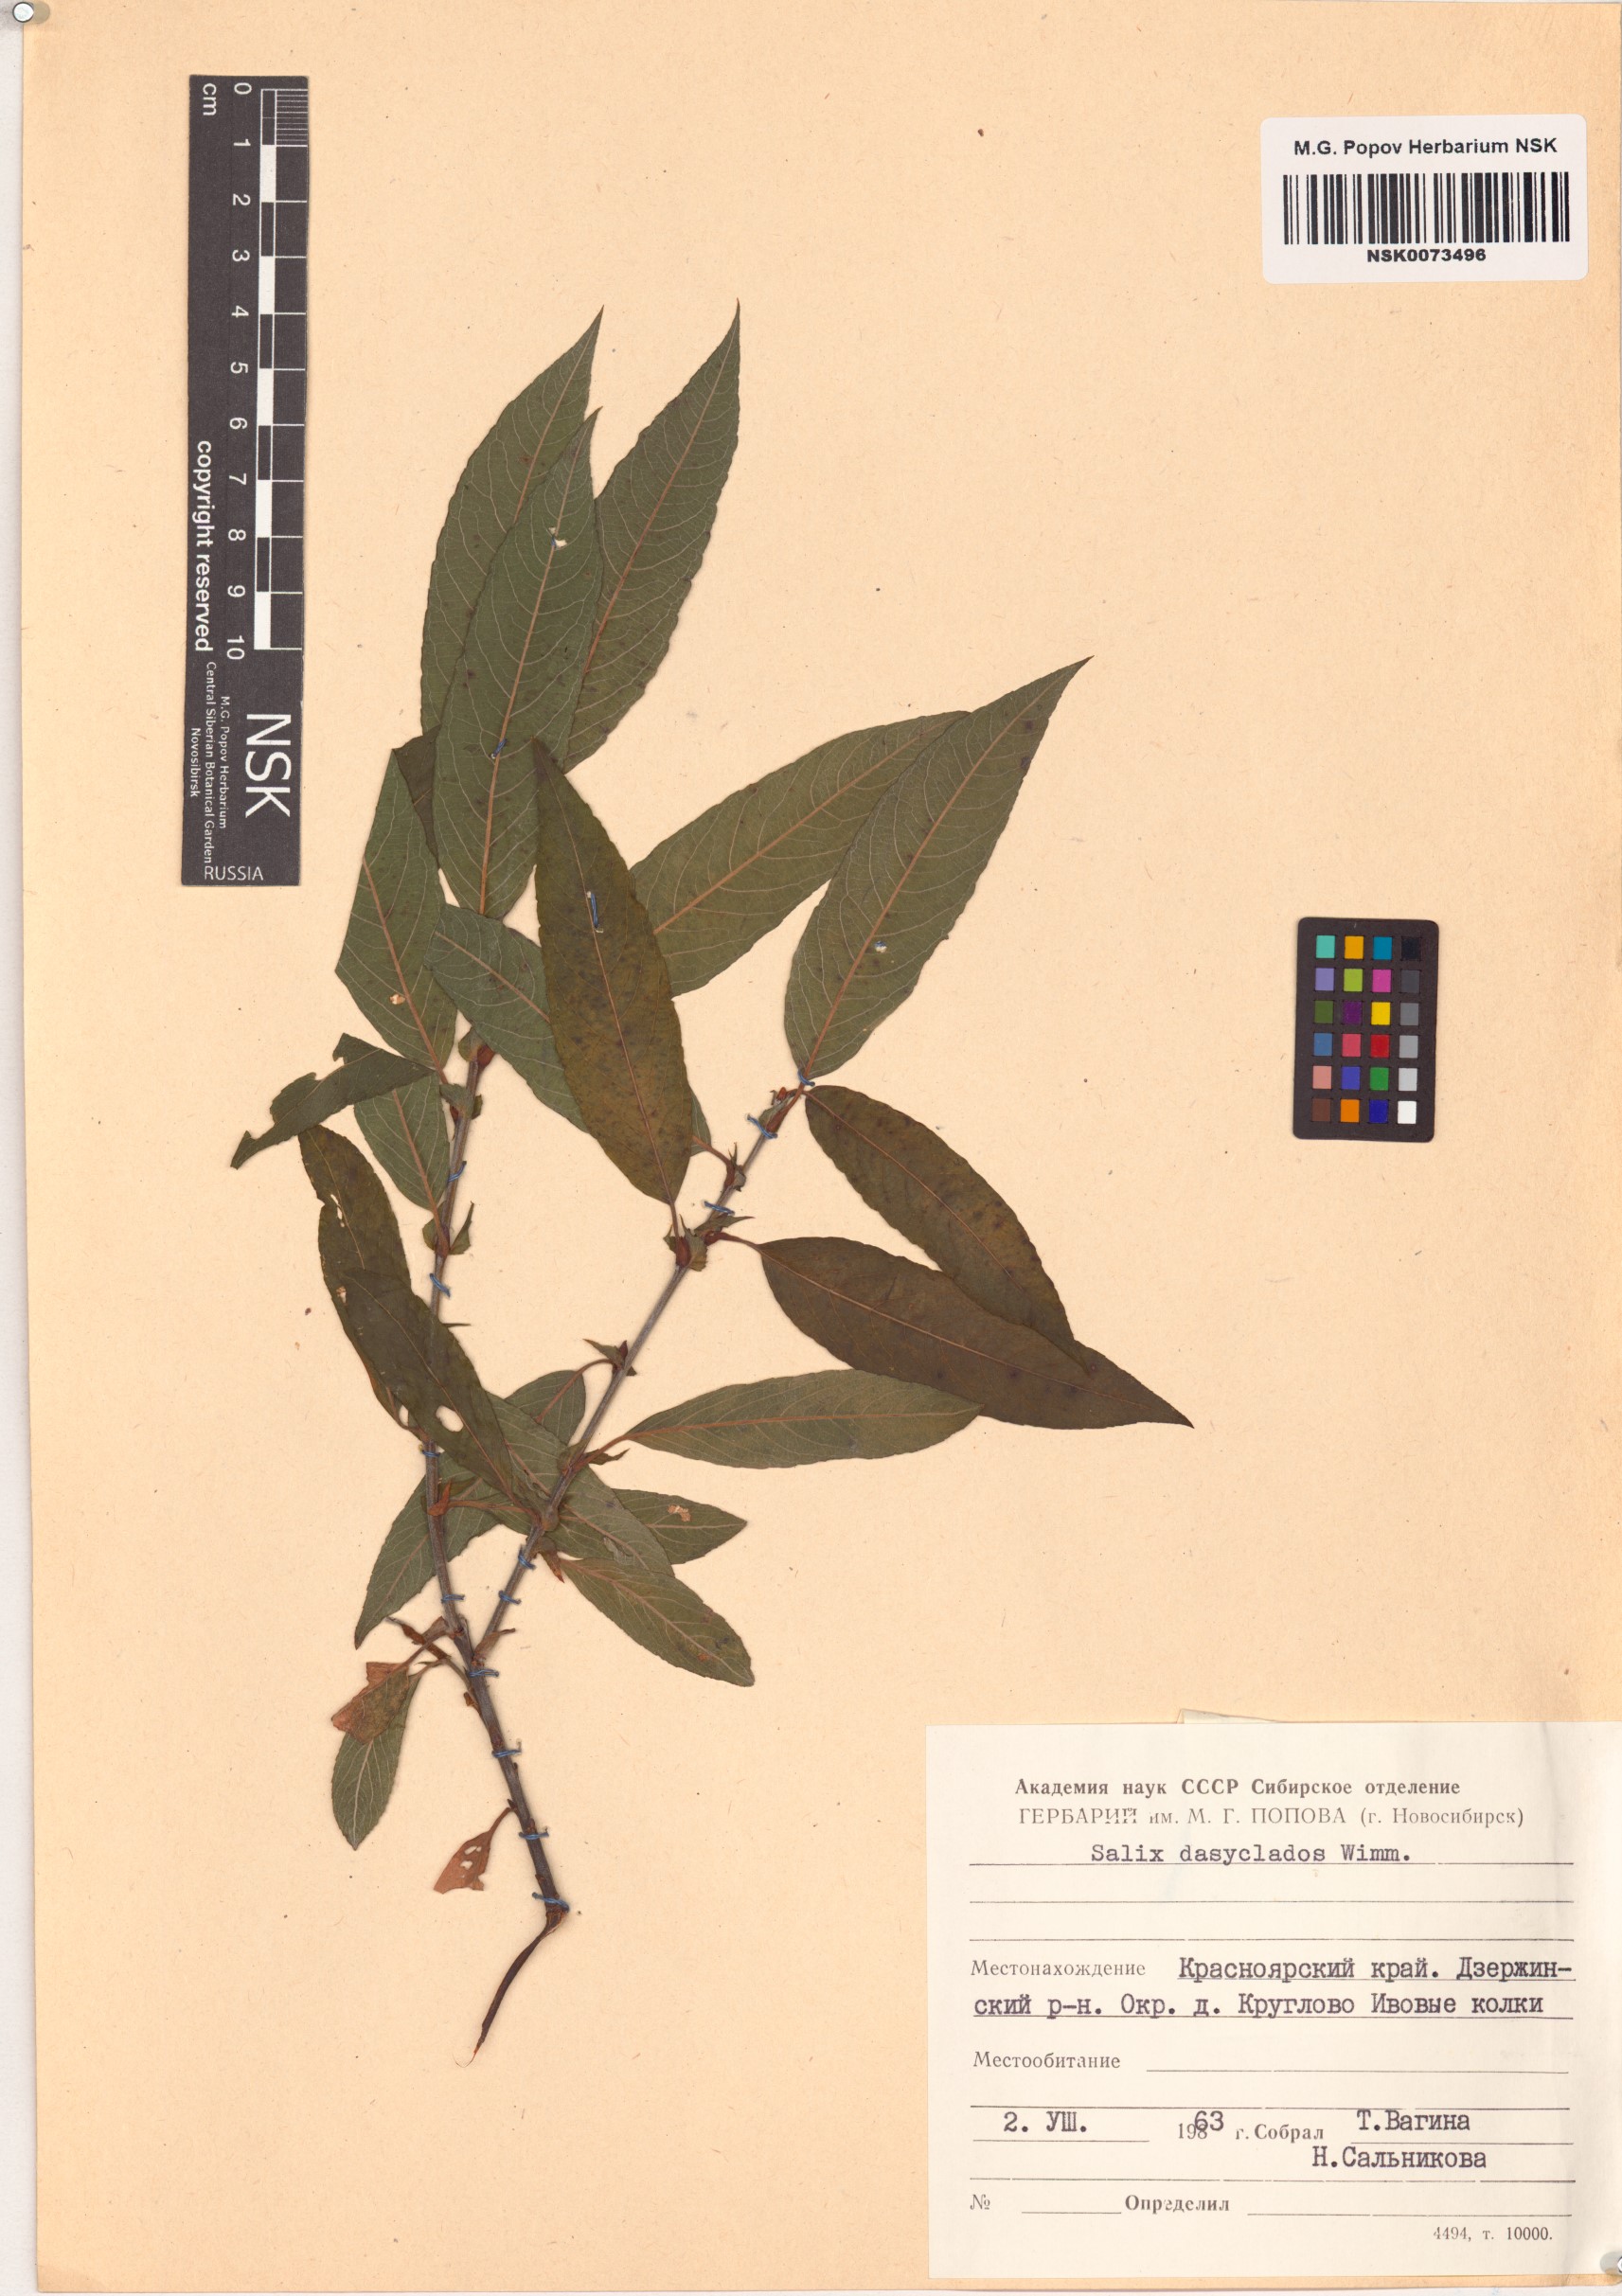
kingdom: Plantae
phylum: Tracheophyta
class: Magnoliopsida
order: Malpighiales
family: Salicaceae
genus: Salix
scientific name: Salix gmelinii
